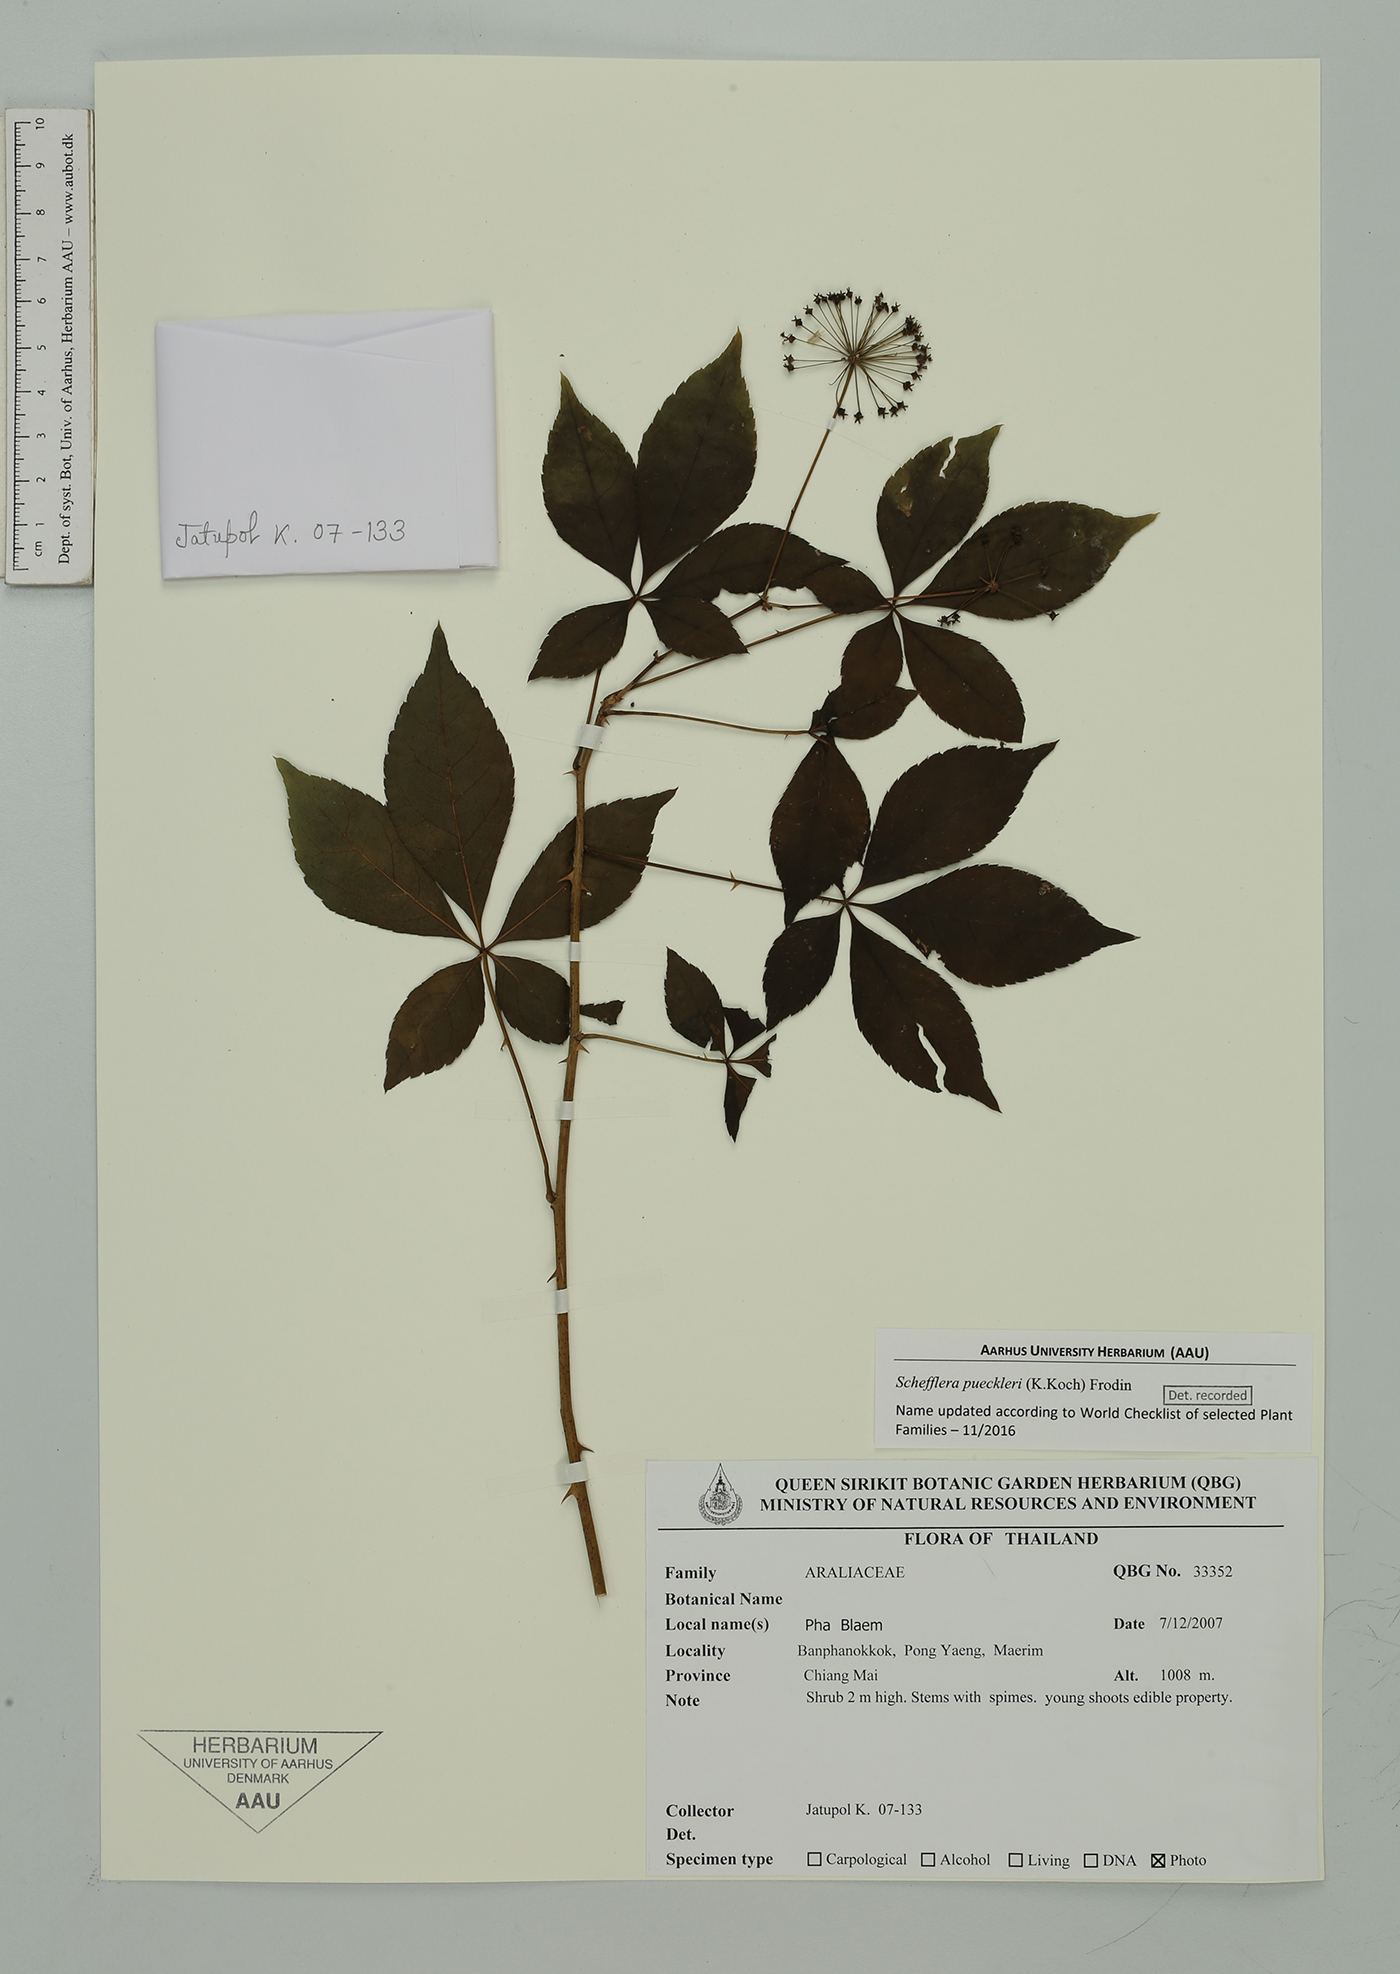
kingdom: Plantae
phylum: Tracheophyta
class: Magnoliopsida
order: Apiales
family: Araliaceae
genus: Heptapleurum
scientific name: Heptapleurum calyptratum
